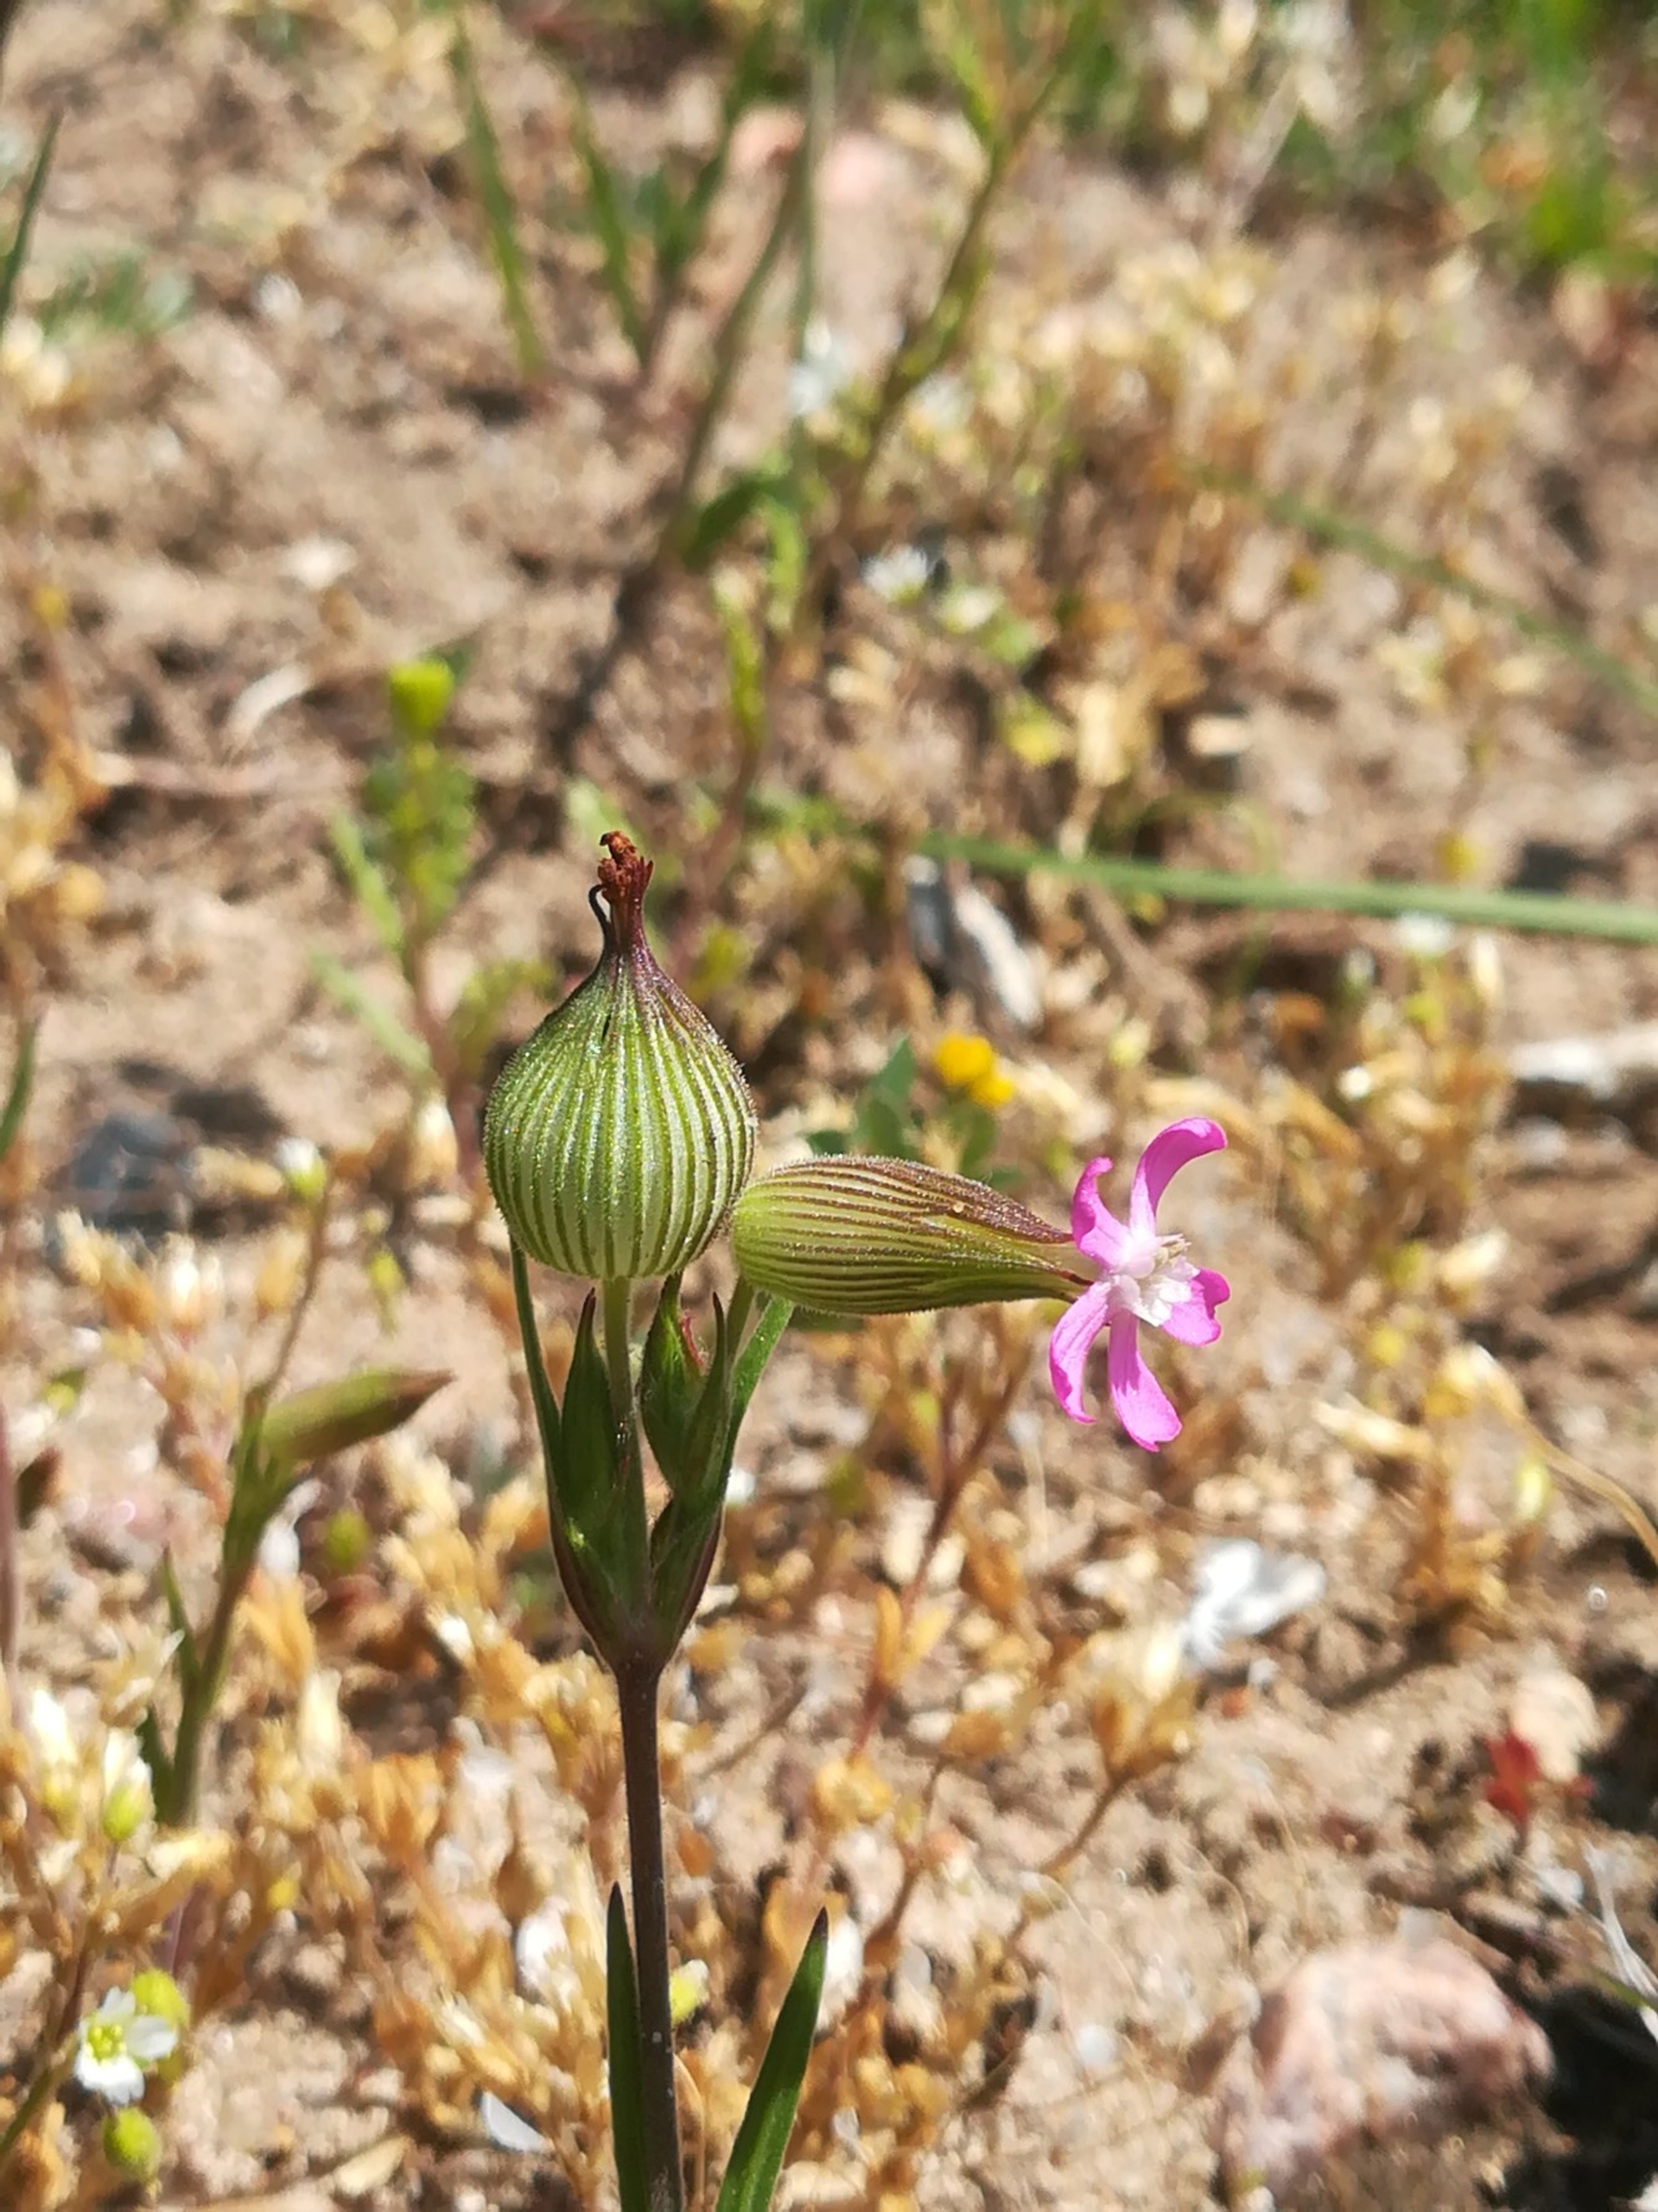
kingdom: Plantae
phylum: Tracheophyta
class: Magnoliopsida
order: Caryophyllales
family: Caryophyllaceae
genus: Silene
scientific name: Silene conica
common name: Kegle-limurt
